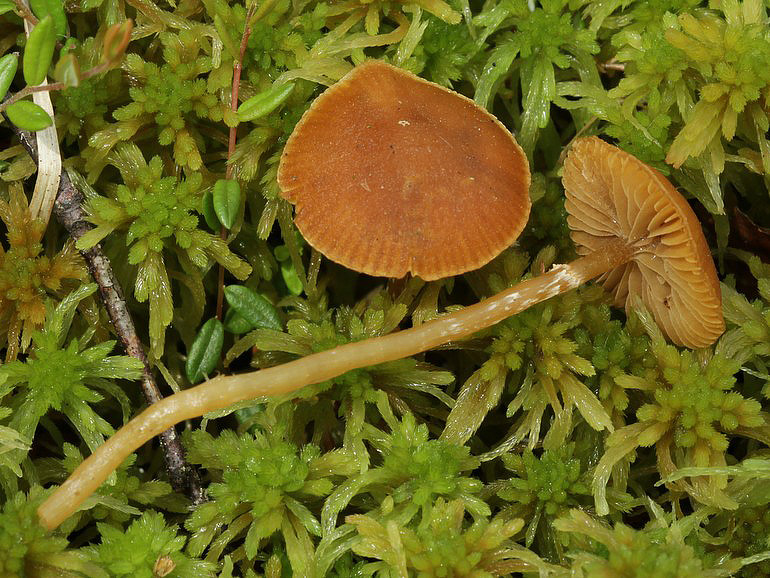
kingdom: Fungi
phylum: Basidiomycota
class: Agaricomycetes
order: Agaricales
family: Hymenogastraceae
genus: Galerina
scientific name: Galerina paludosa
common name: mose-hjelmhat
